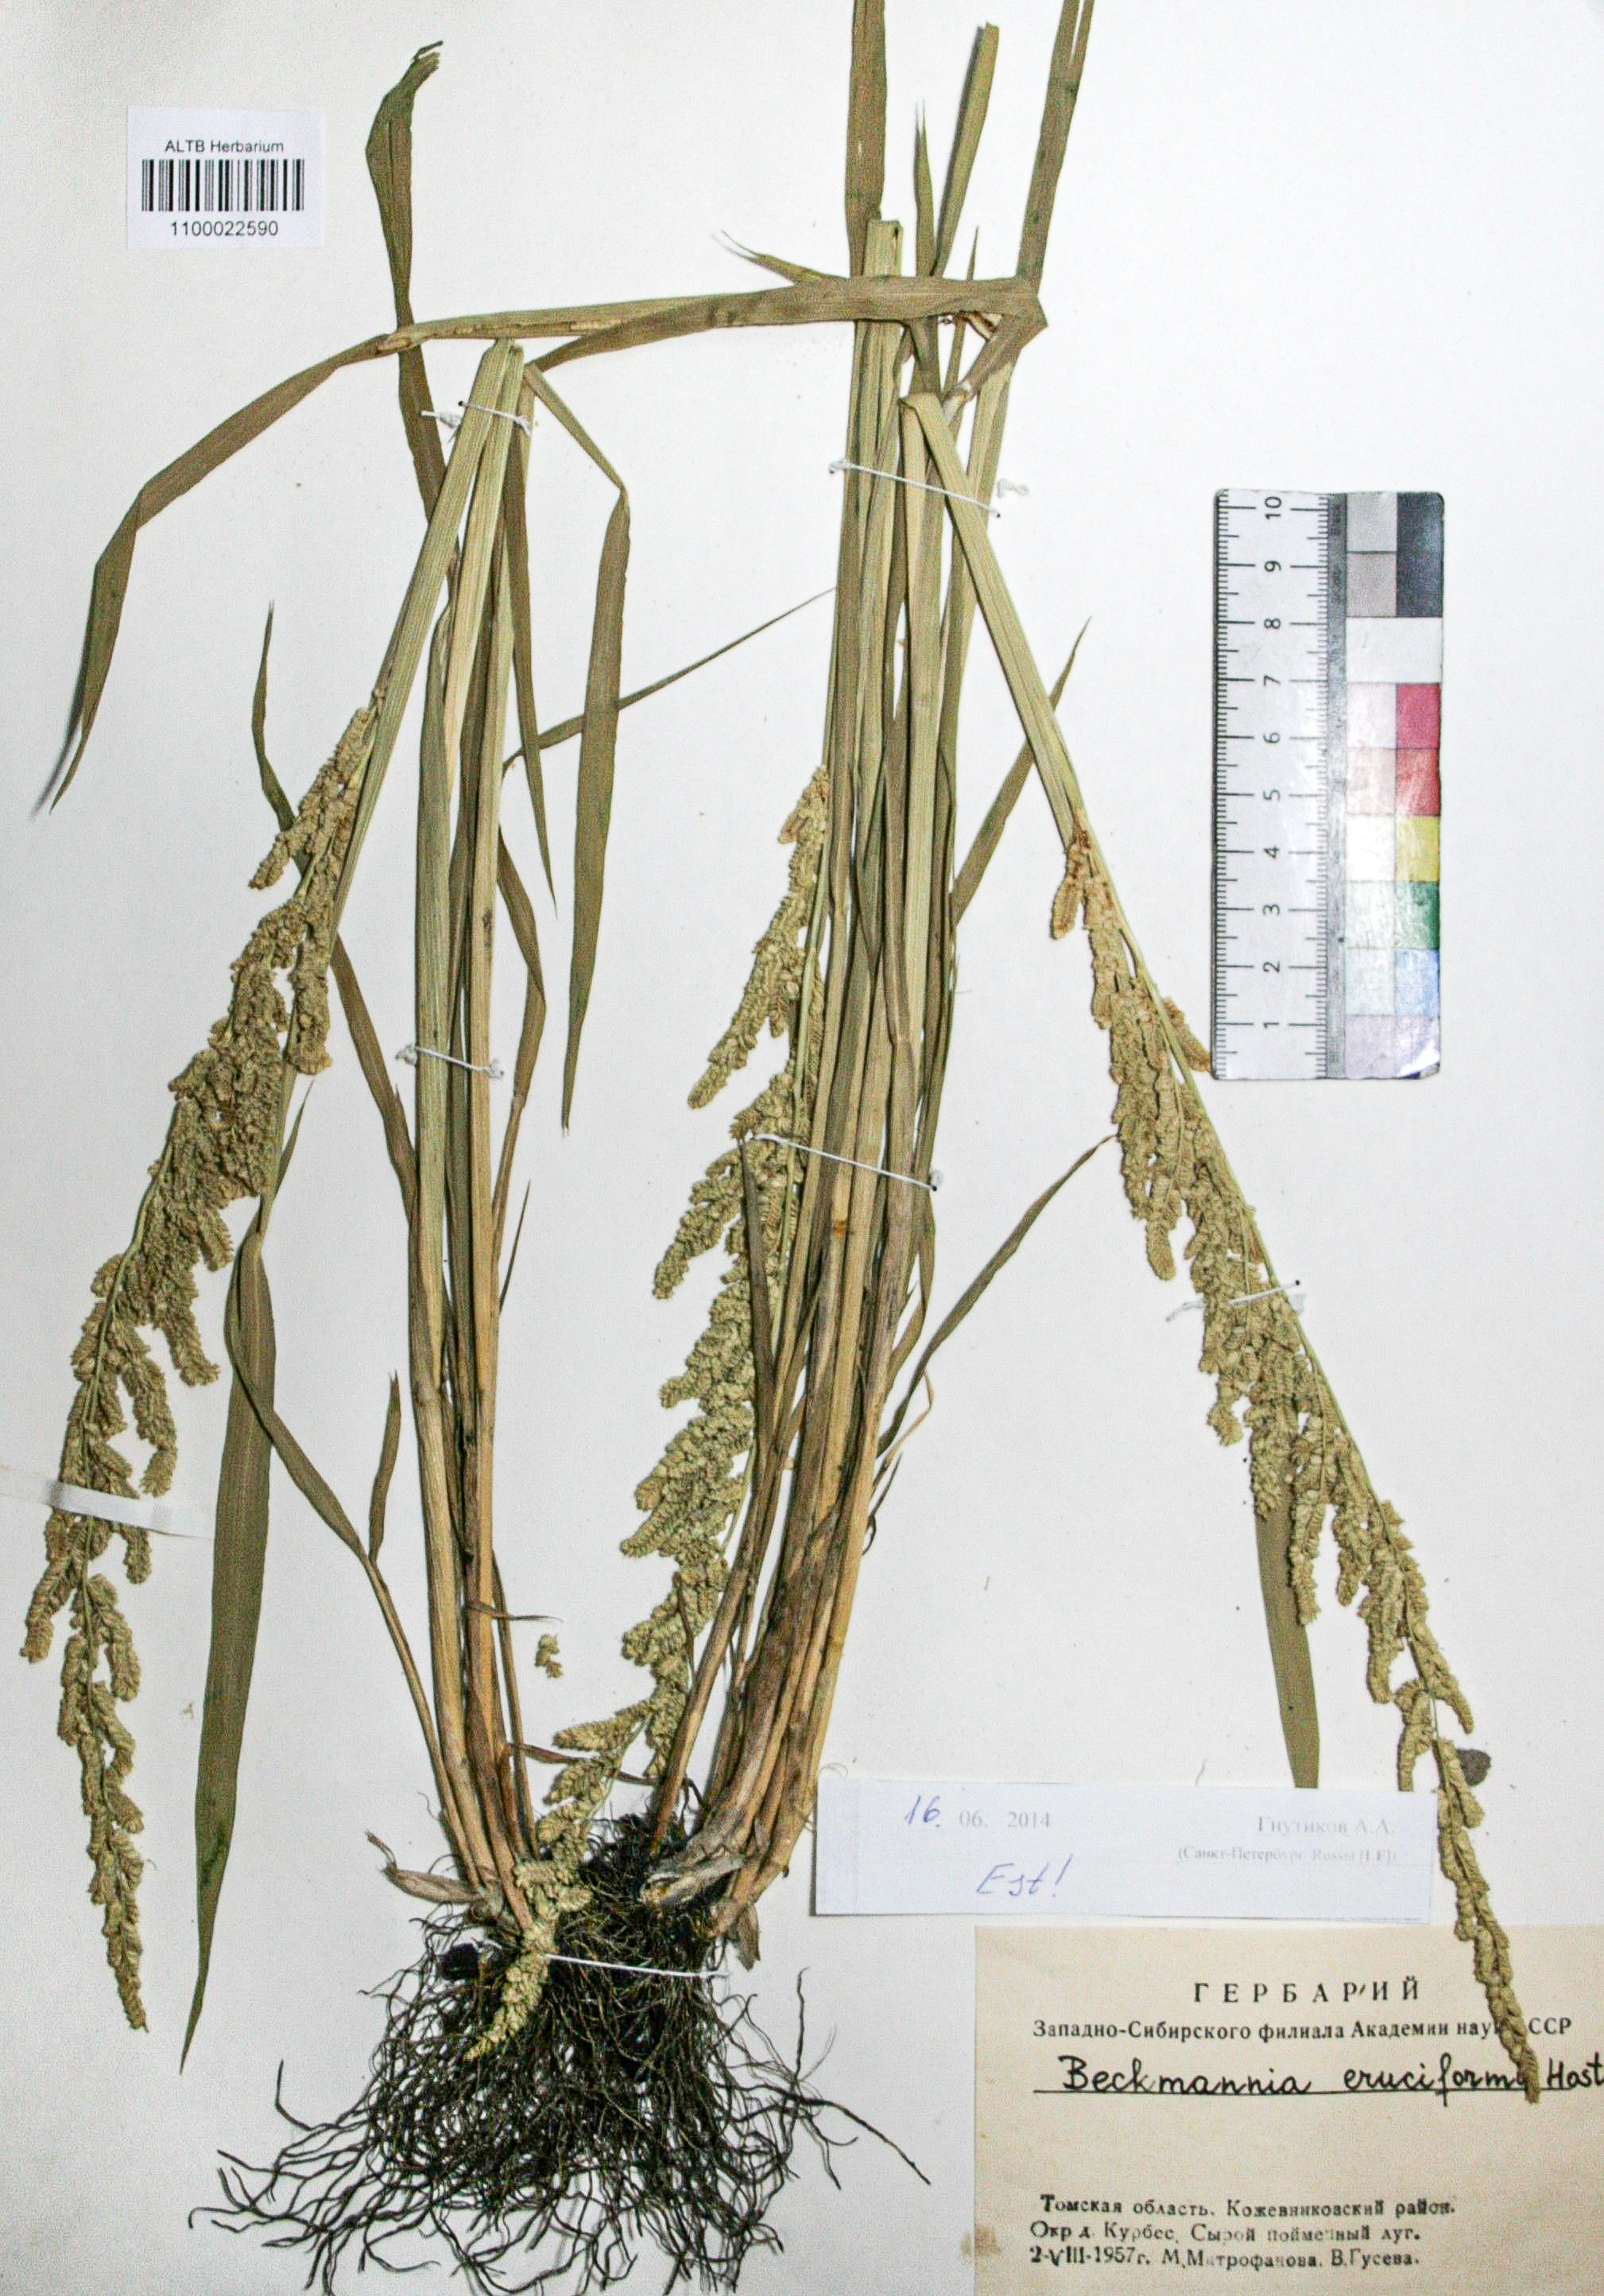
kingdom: Plantae
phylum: Tracheophyta
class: Liliopsida
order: Poales
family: Poaceae
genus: Calamagrostis
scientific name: Calamagrostis epigejos
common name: Wood small-reed
